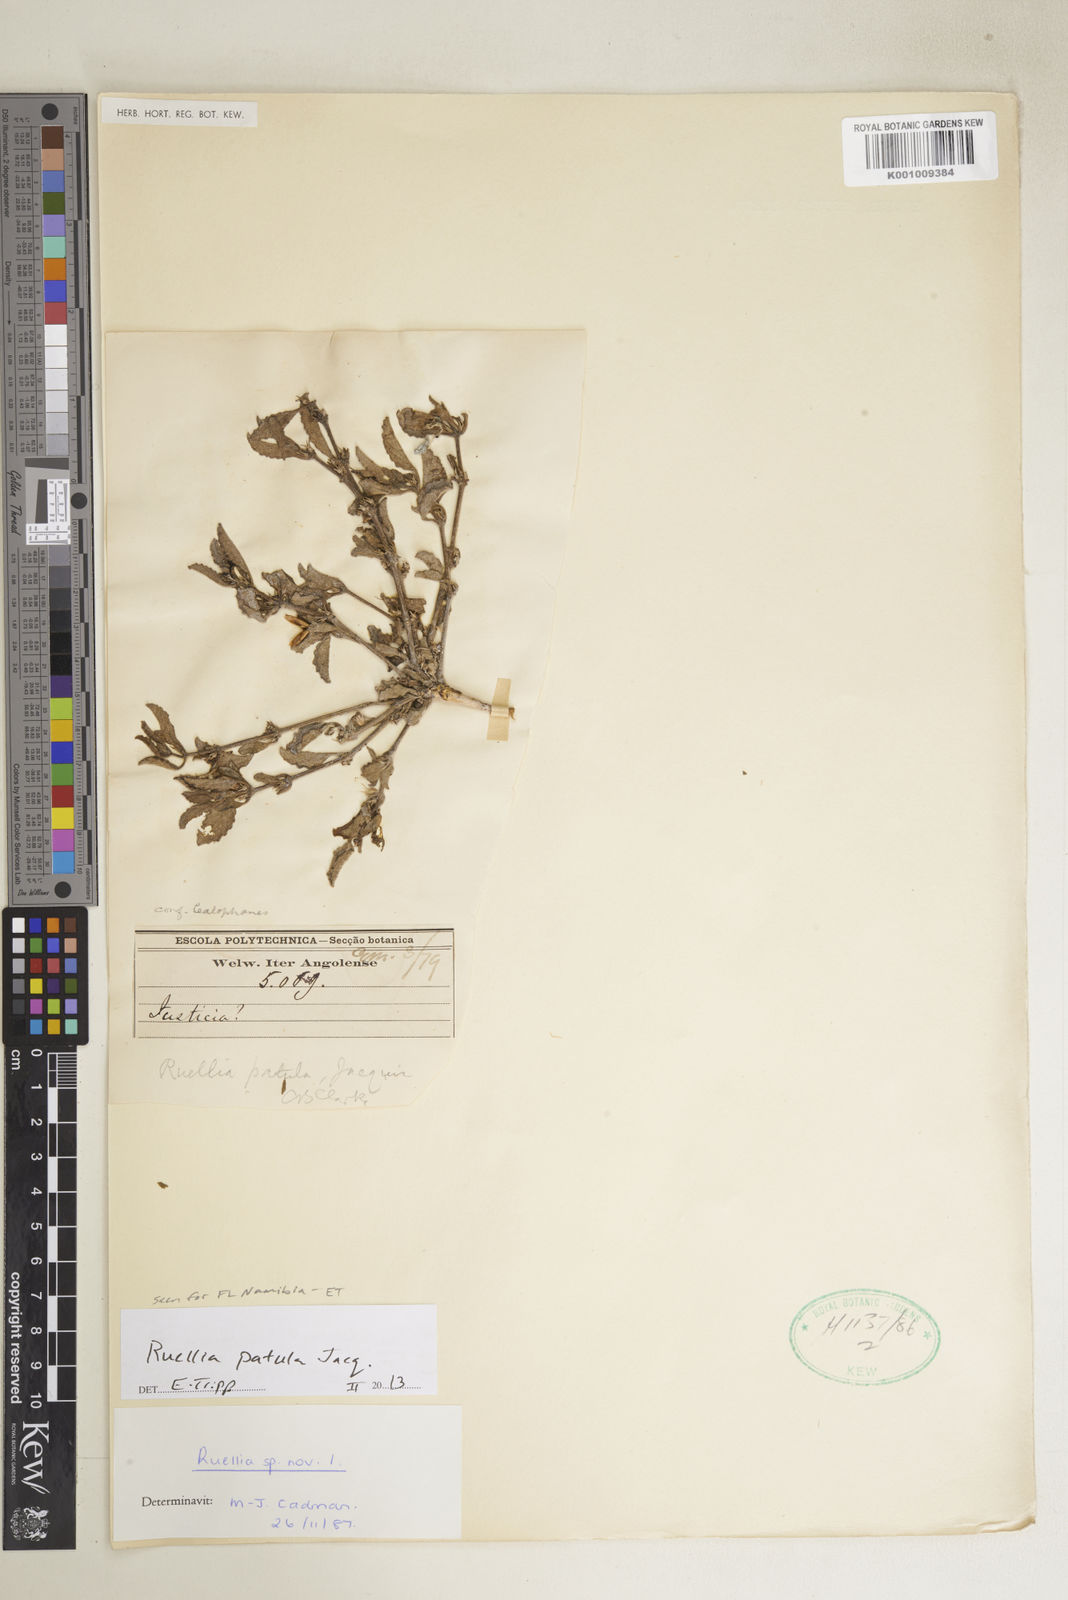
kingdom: Plantae
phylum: Tracheophyta
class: Magnoliopsida
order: Lamiales
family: Acanthaceae
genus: Ruellia
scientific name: Ruellia patula
